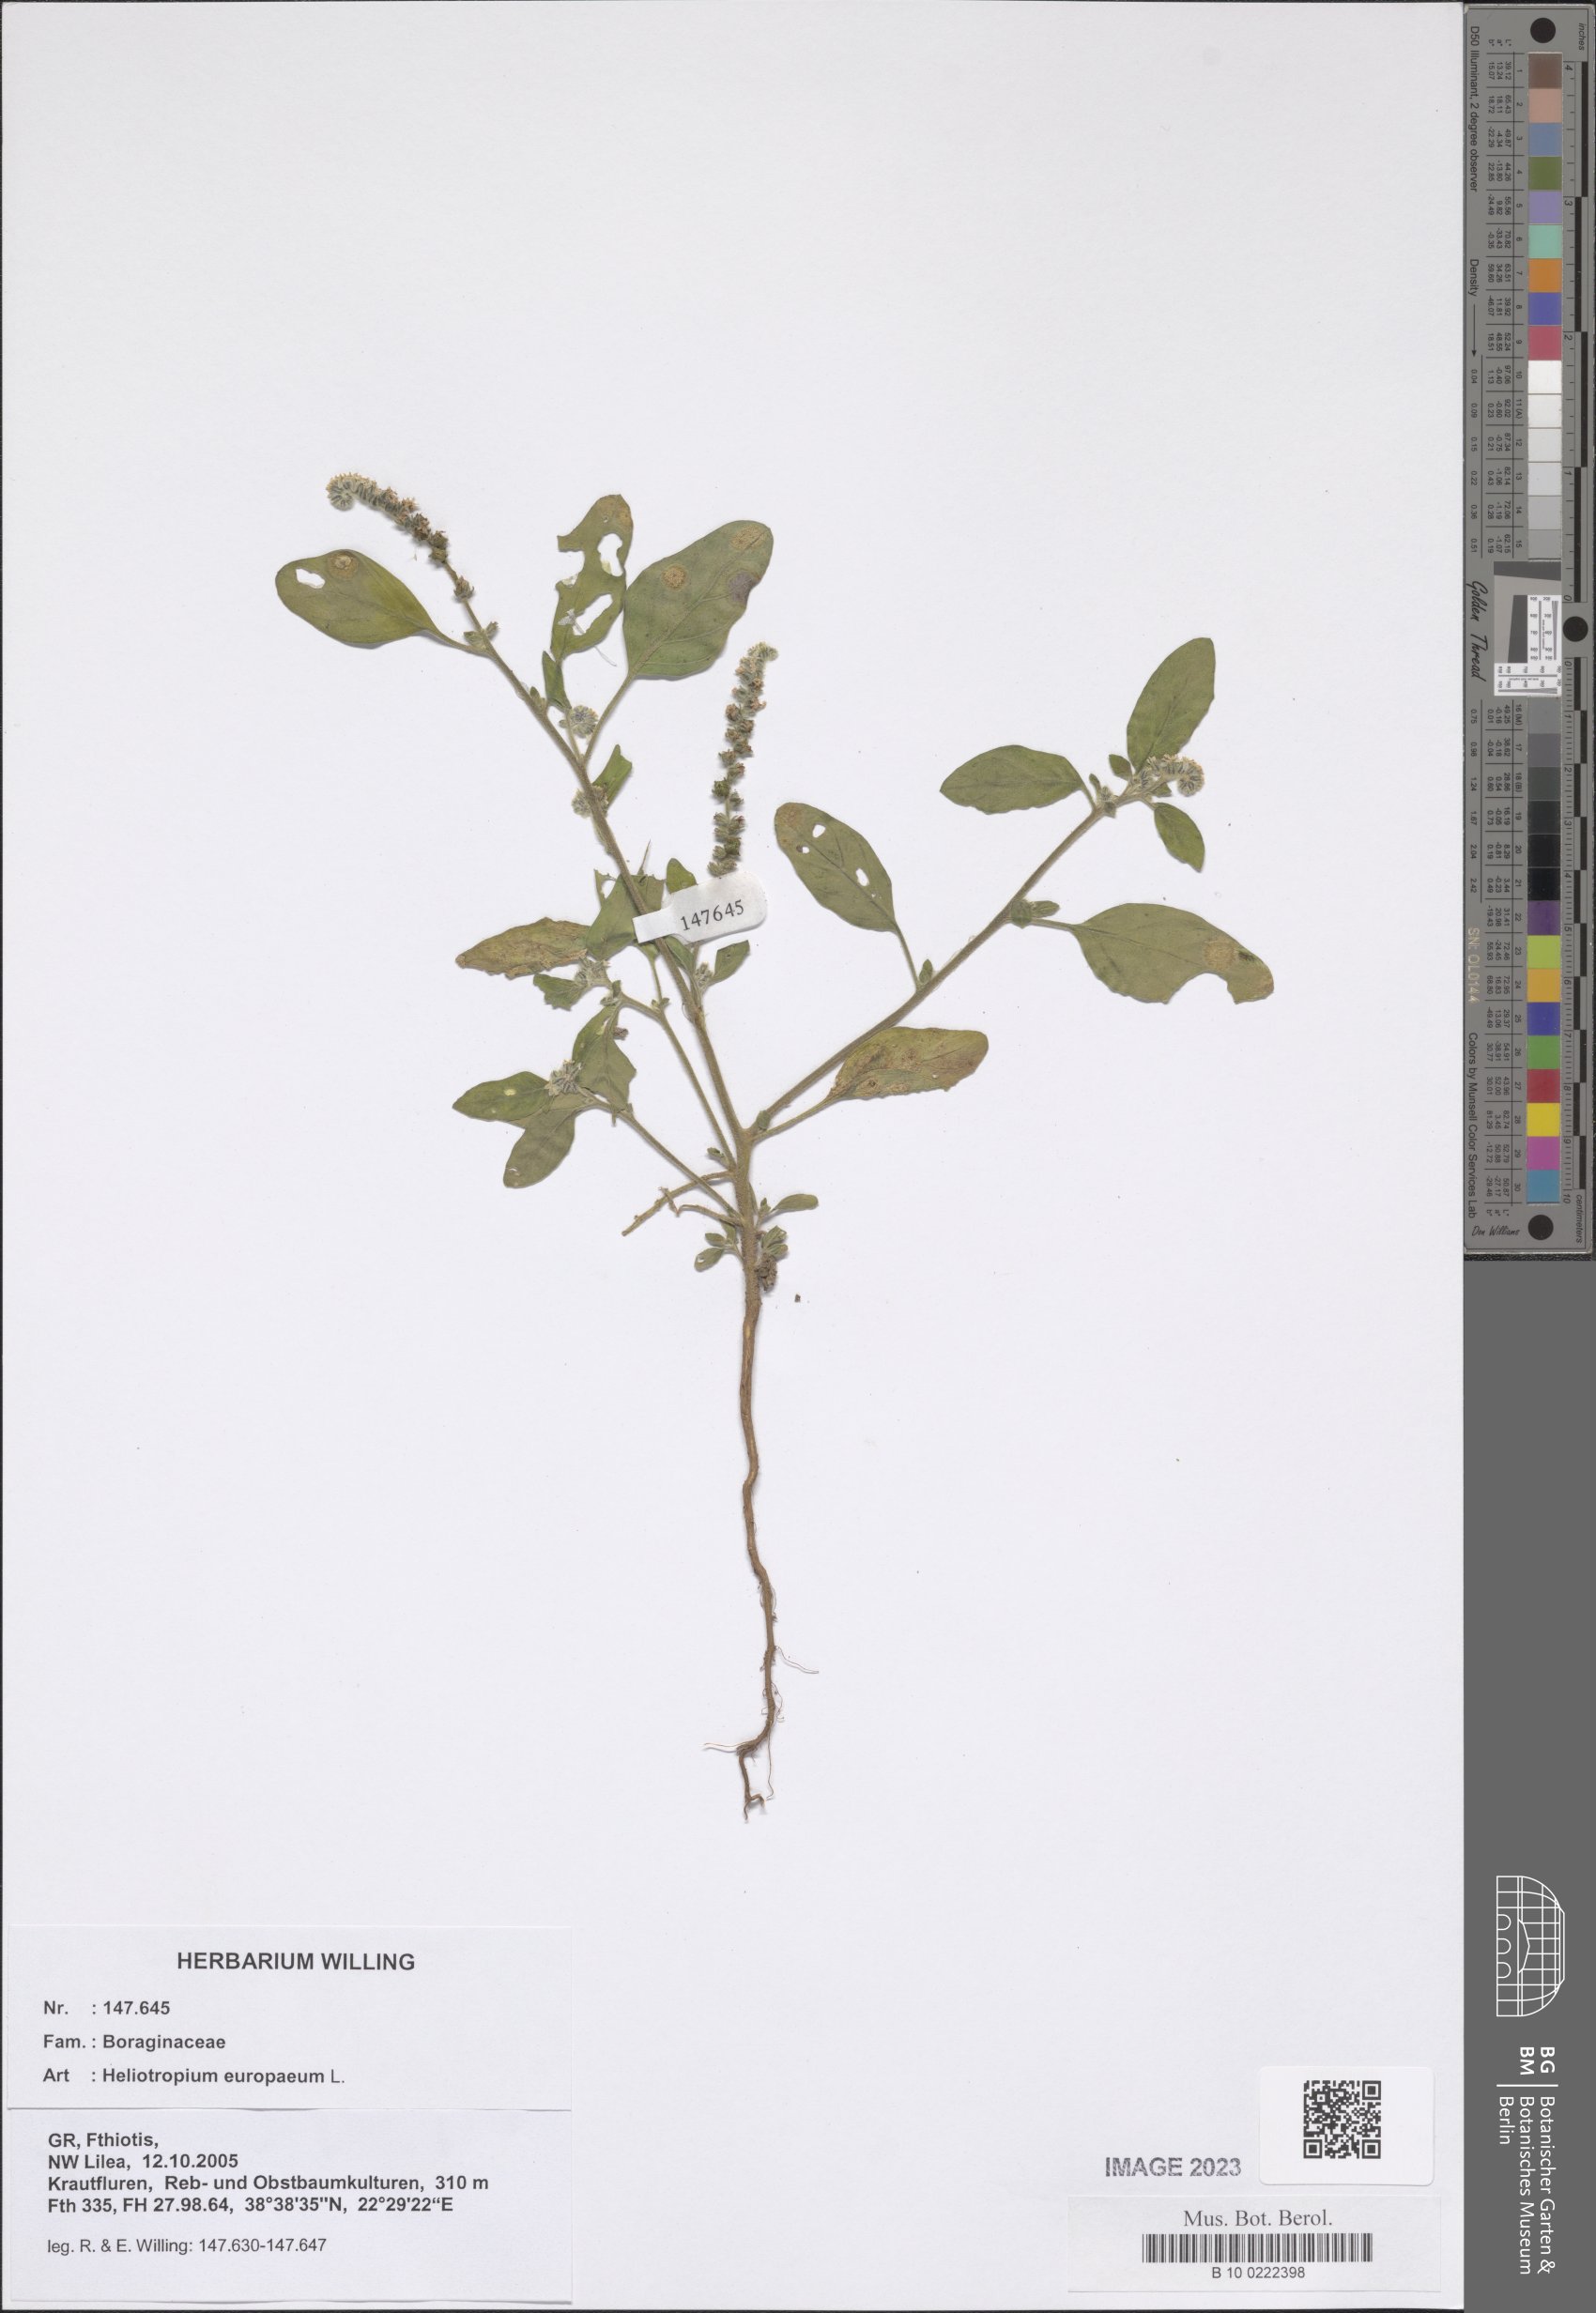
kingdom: Plantae
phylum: Tracheophyta
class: Magnoliopsida
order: Boraginales
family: Heliotropiaceae
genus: Heliotropium
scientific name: Heliotropium europaeum
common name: European heliotrope
